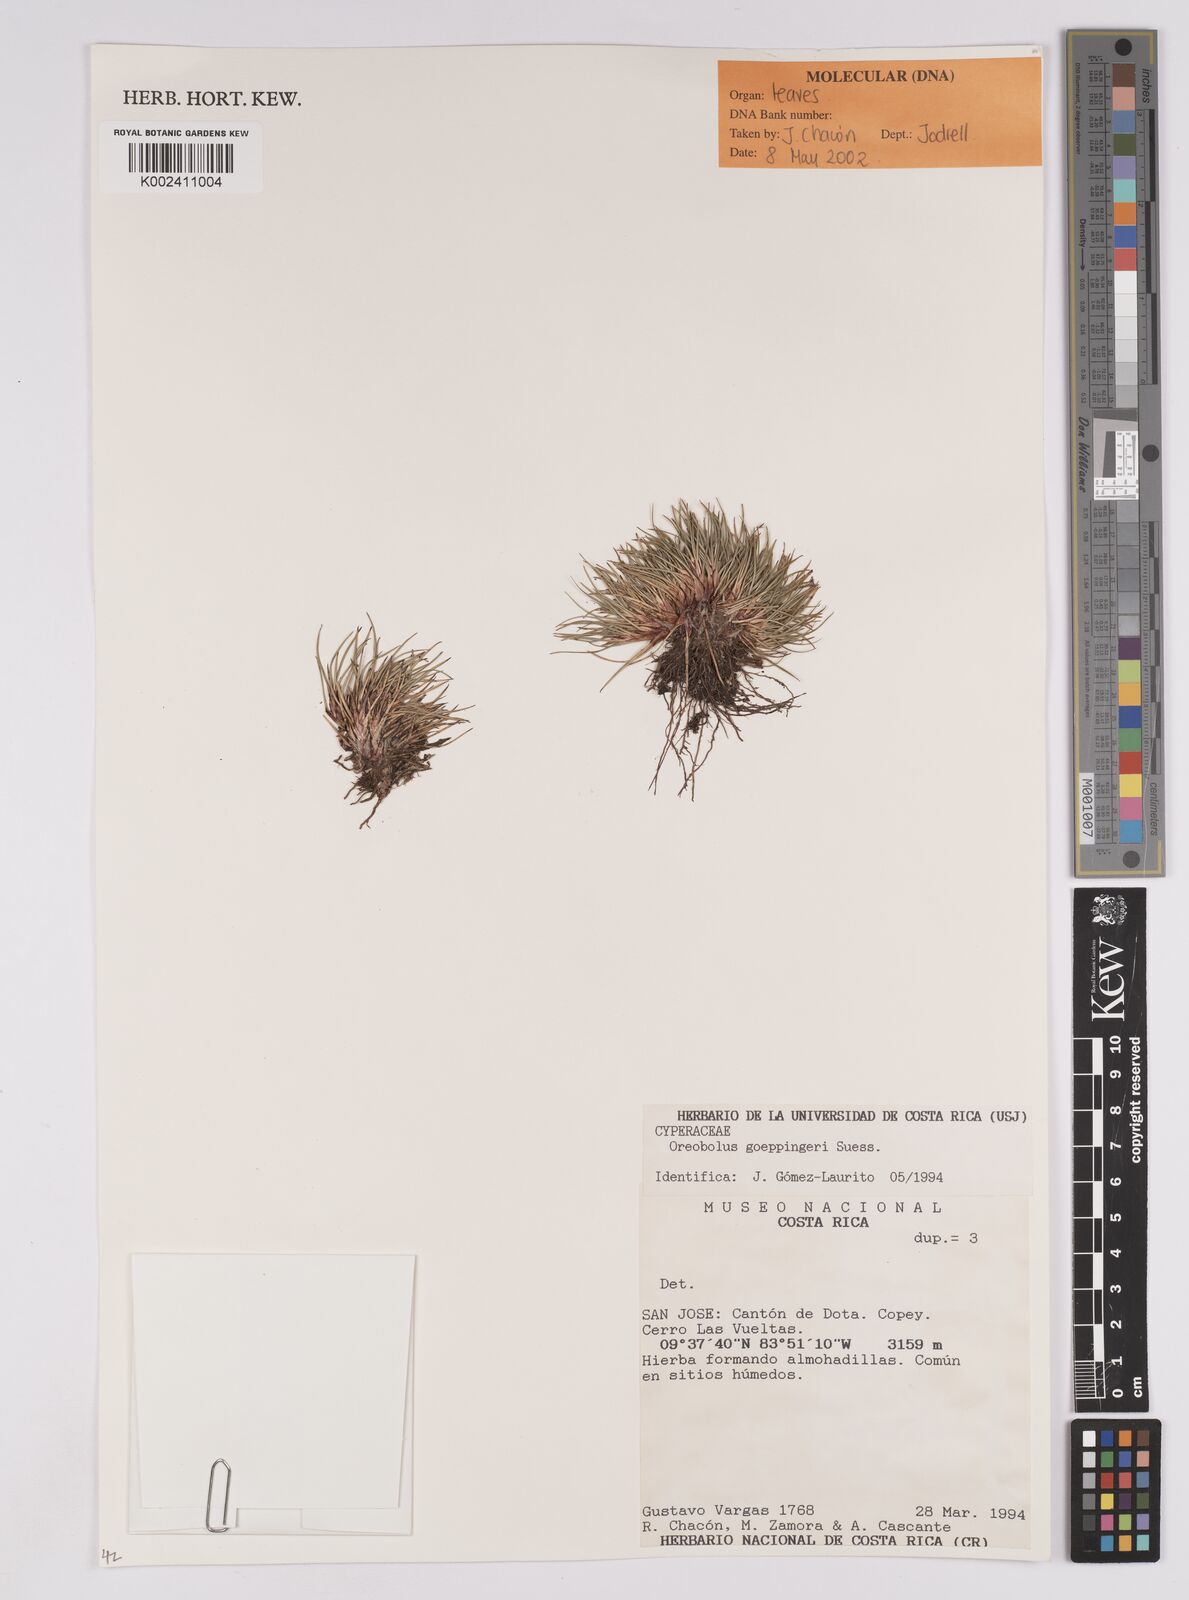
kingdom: Plantae
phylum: Tracheophyta
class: Liliopsida
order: Poales
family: Cyperaceae
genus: Oreobolus
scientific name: Oreobolus goeppingeri
